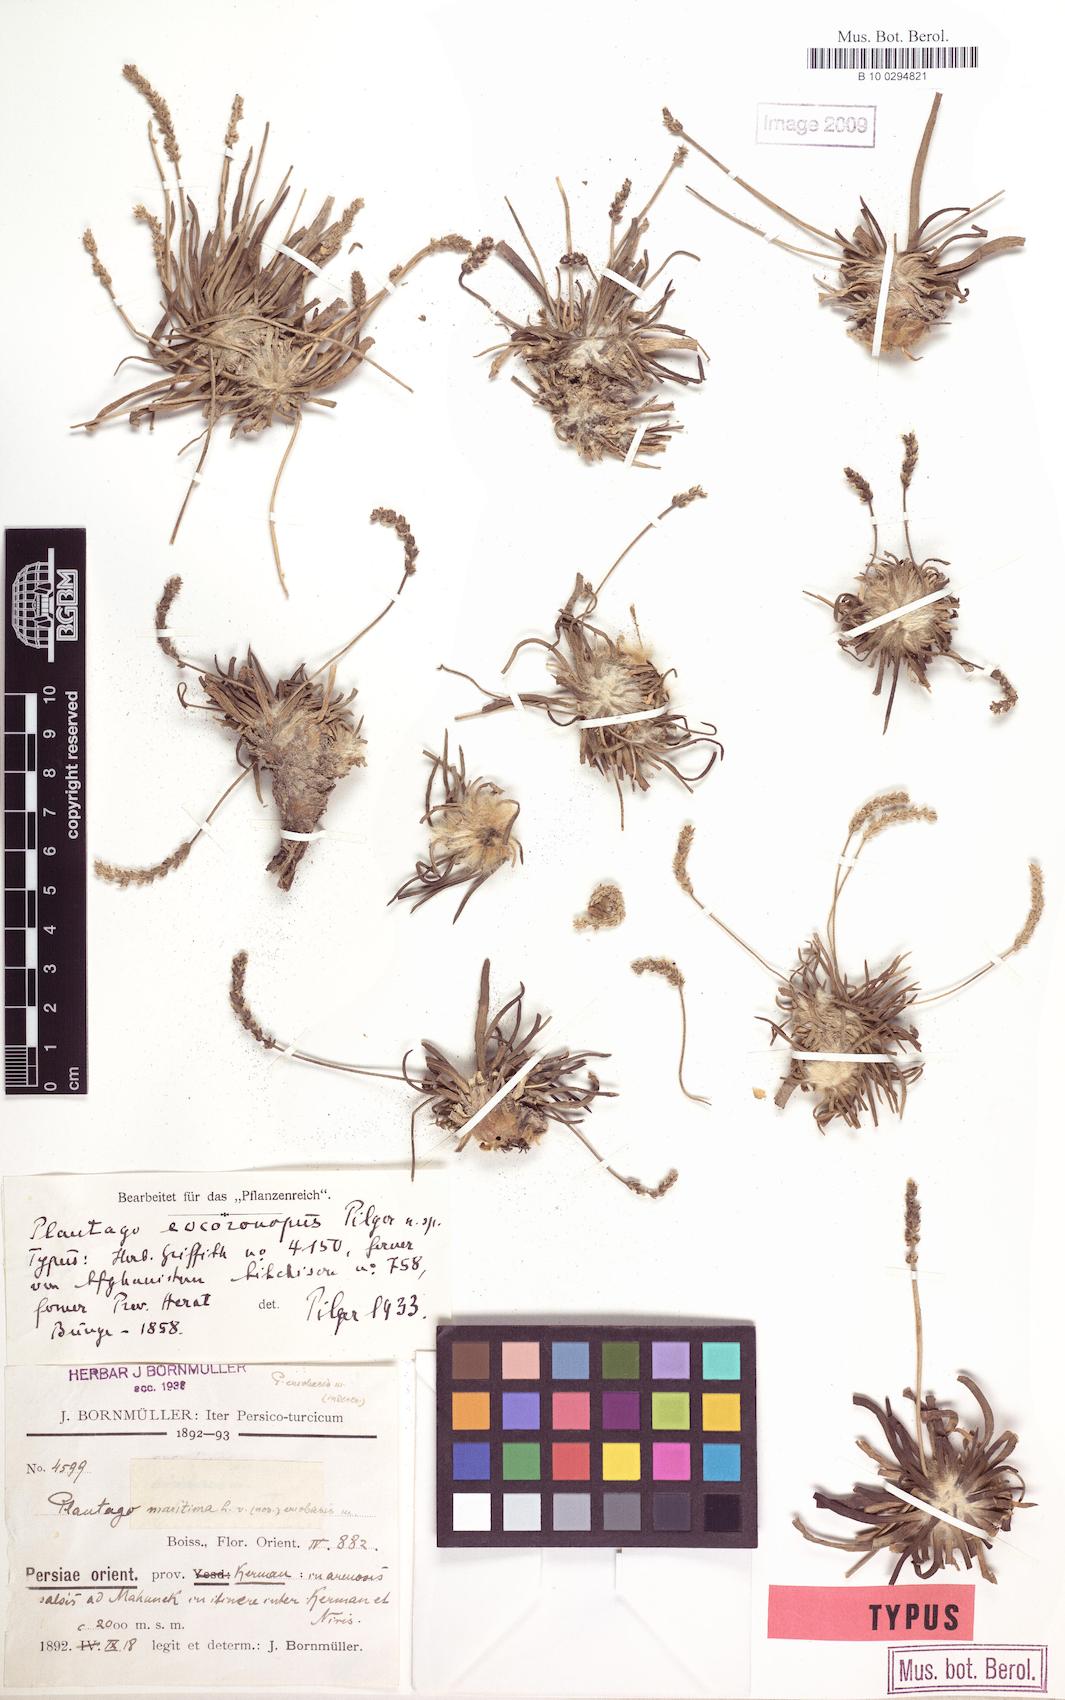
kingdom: Plantae
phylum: Tracheophyta
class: Magnoliopsida
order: Lamiales
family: Plantaginaceae
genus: Plantago
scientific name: Plantago salsa
